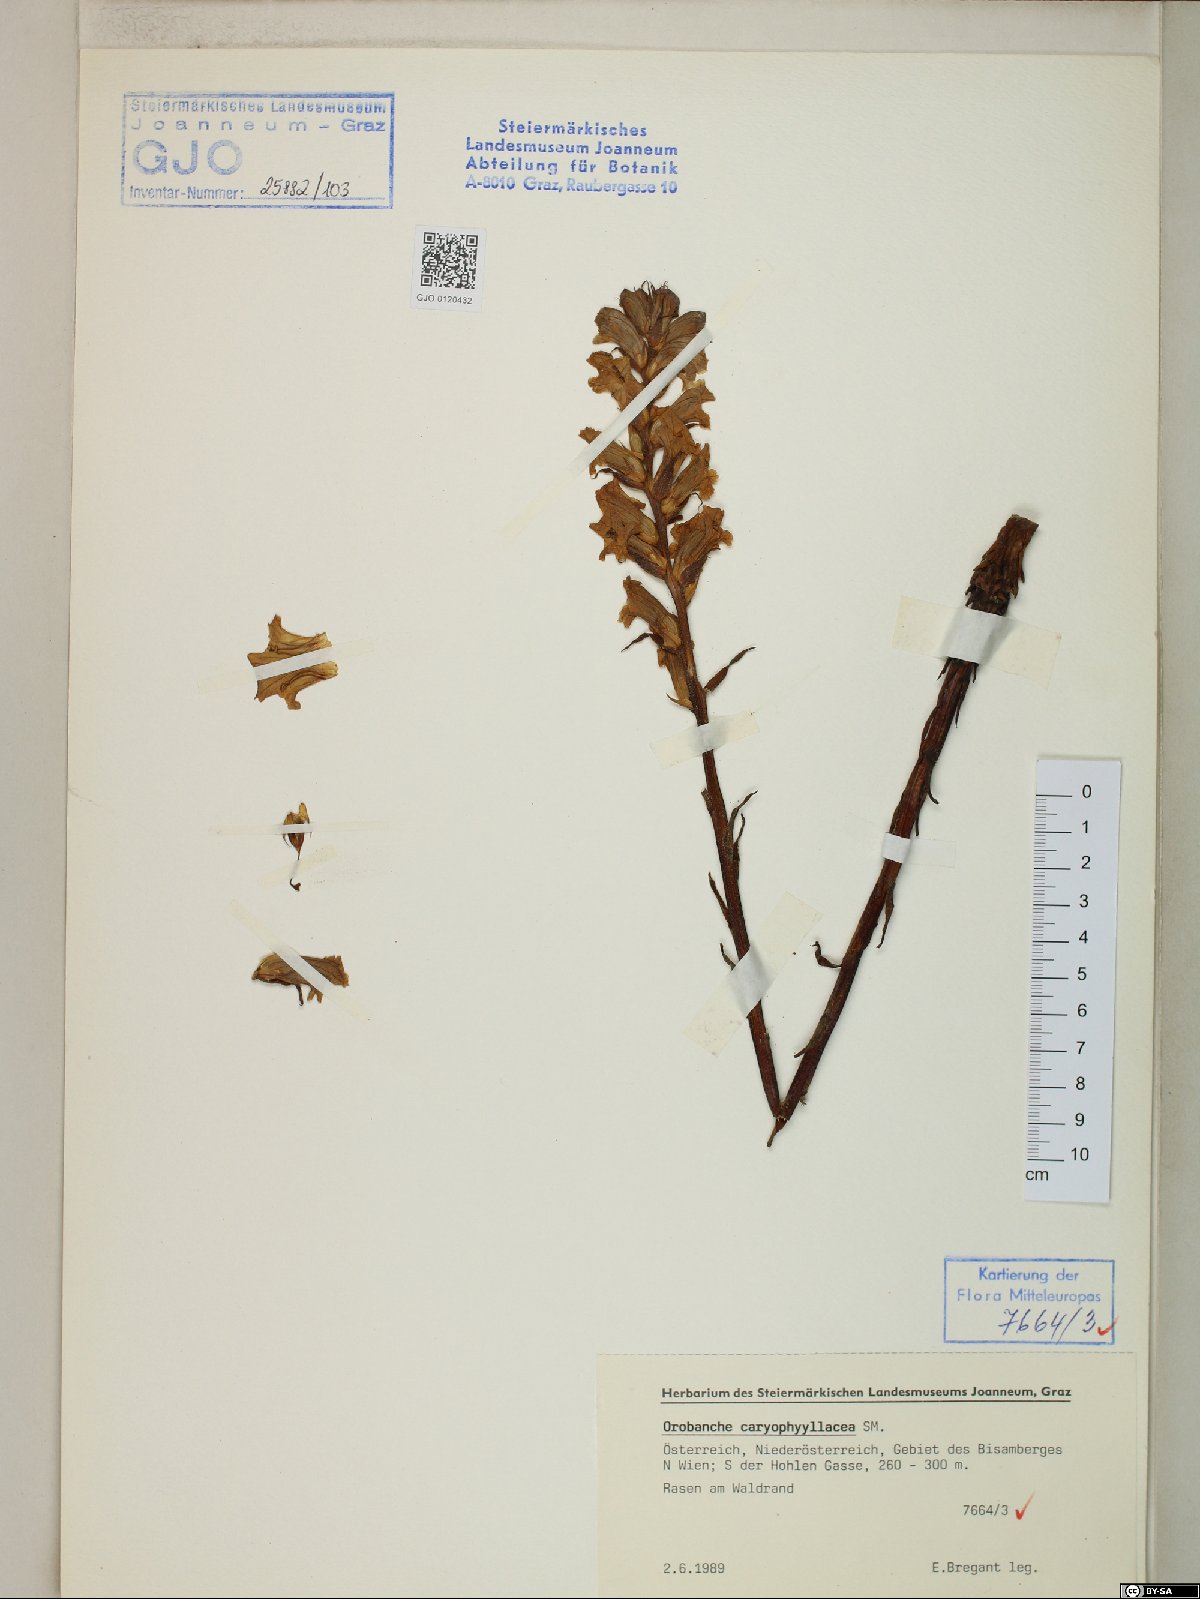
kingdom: Plantae
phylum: Tracheophyta
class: Magnoliopsida
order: Lamiales
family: Orobanchaceae
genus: Orobanche
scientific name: Orobanche caryophyllacea
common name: Bedstraw broomrape
